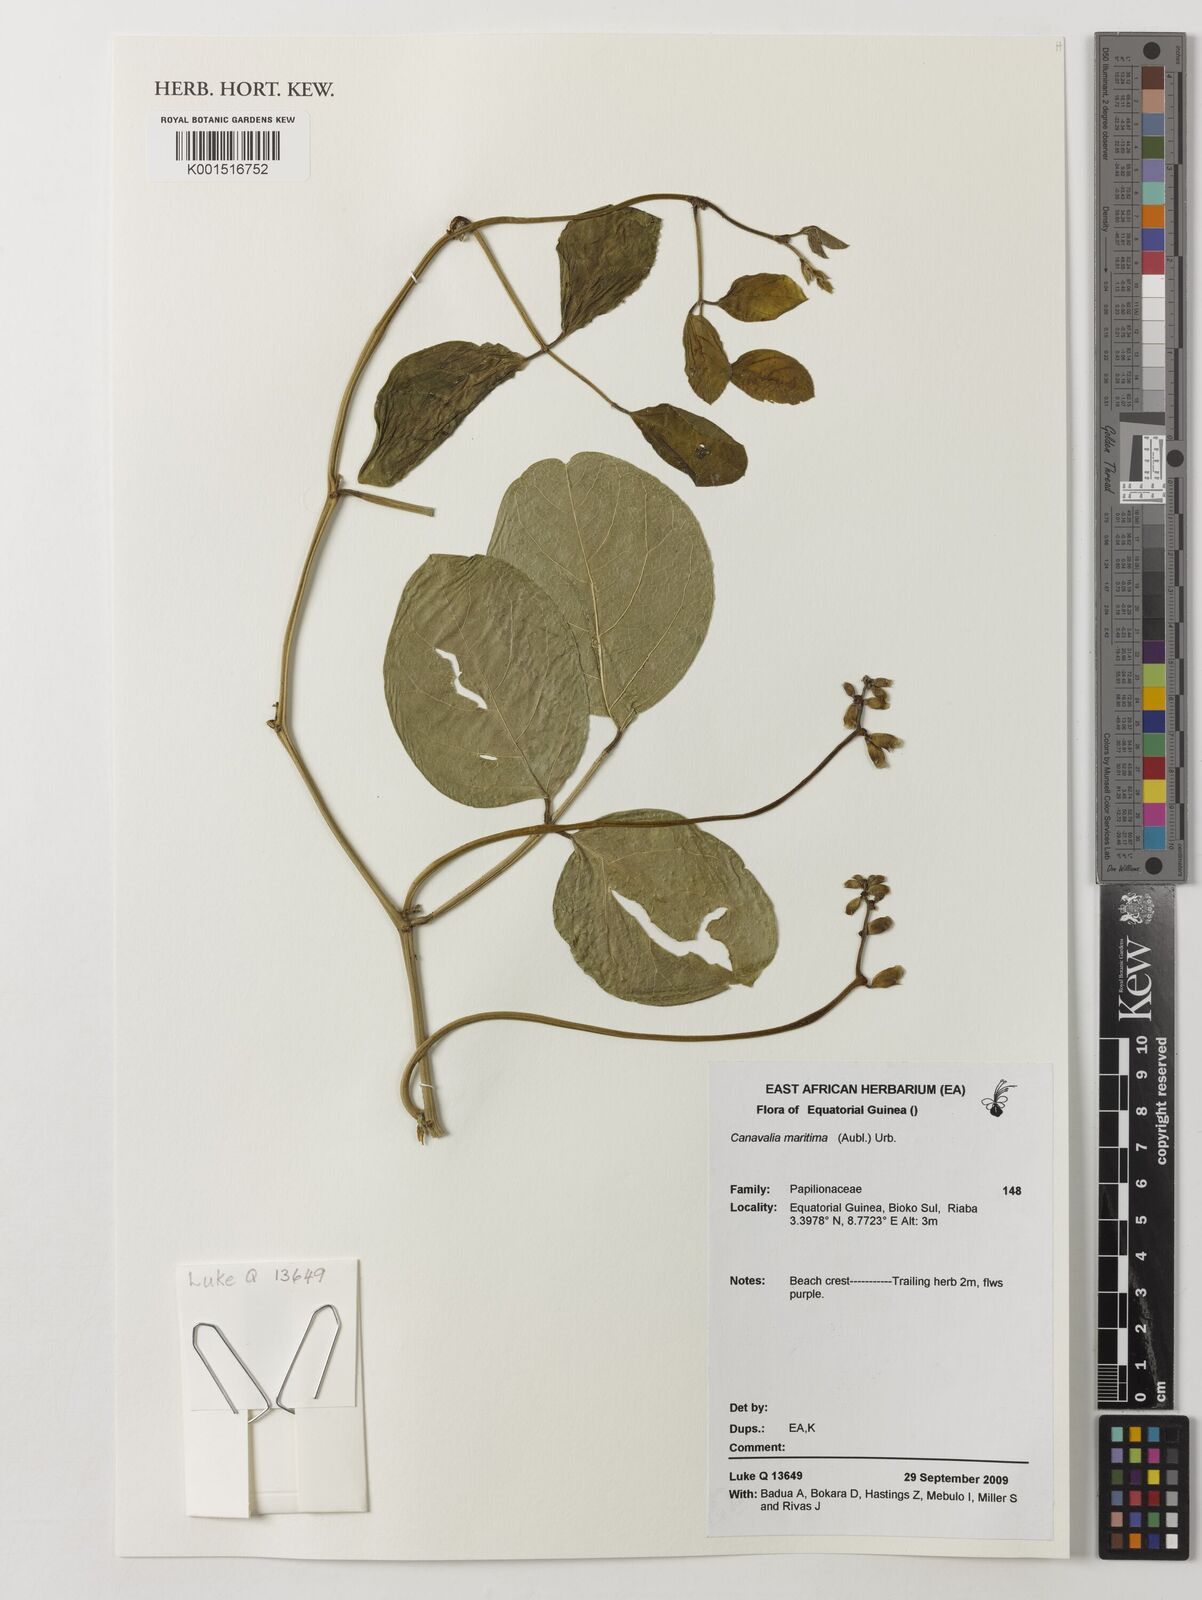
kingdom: Plantae
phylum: Tracheophyta
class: Magnoliopsida
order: Fabales
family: Fabaceae
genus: Canavalia
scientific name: Canavalia rosea
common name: Beach-bean
